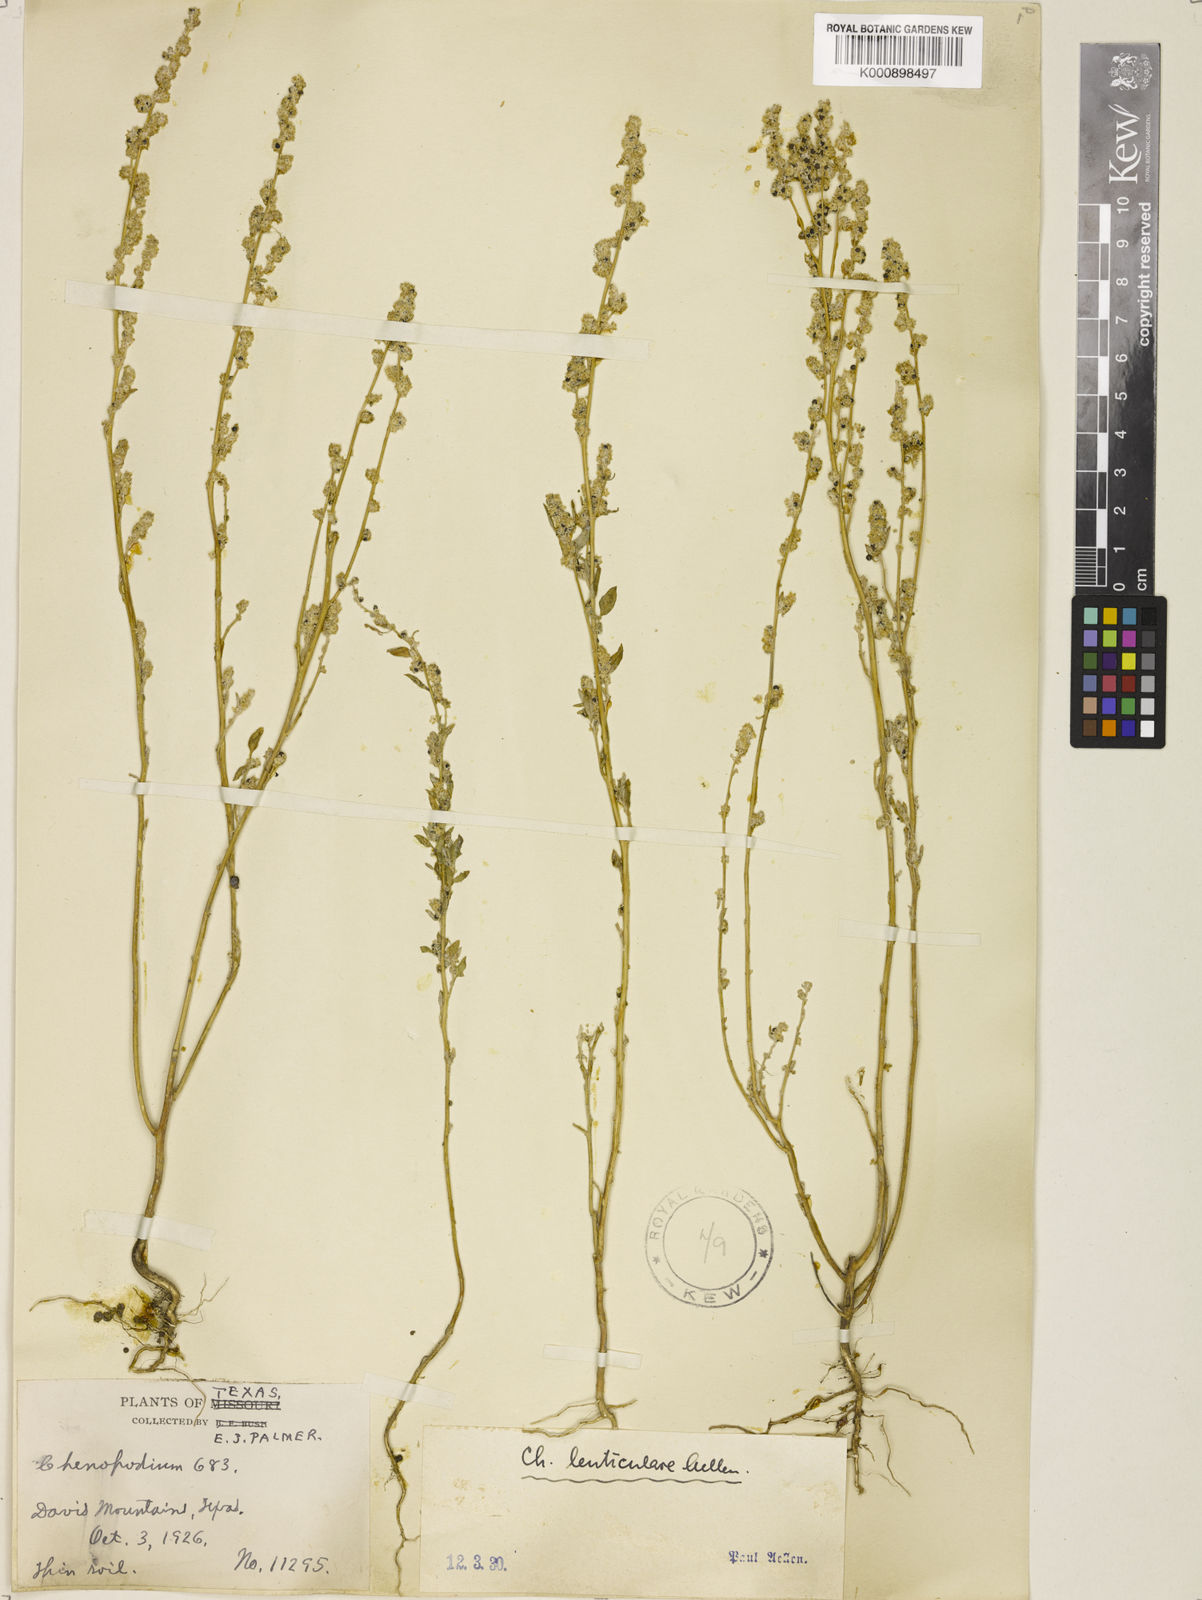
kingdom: Plantae
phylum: Tracheophyta
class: Magnoliopsida
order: Caryophyllales
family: Amaranthaceae
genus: Chenopodium
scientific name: Chenopodium lenticulare
